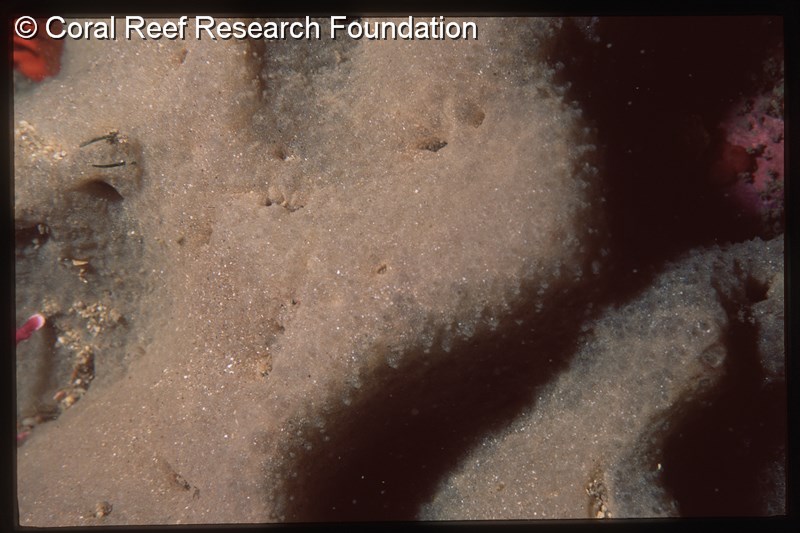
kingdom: Animalia
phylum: Chordata
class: Ascidiacea
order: Aplousobranchia
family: Polycitoridae
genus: Cystodytes
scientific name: Cystodytes
